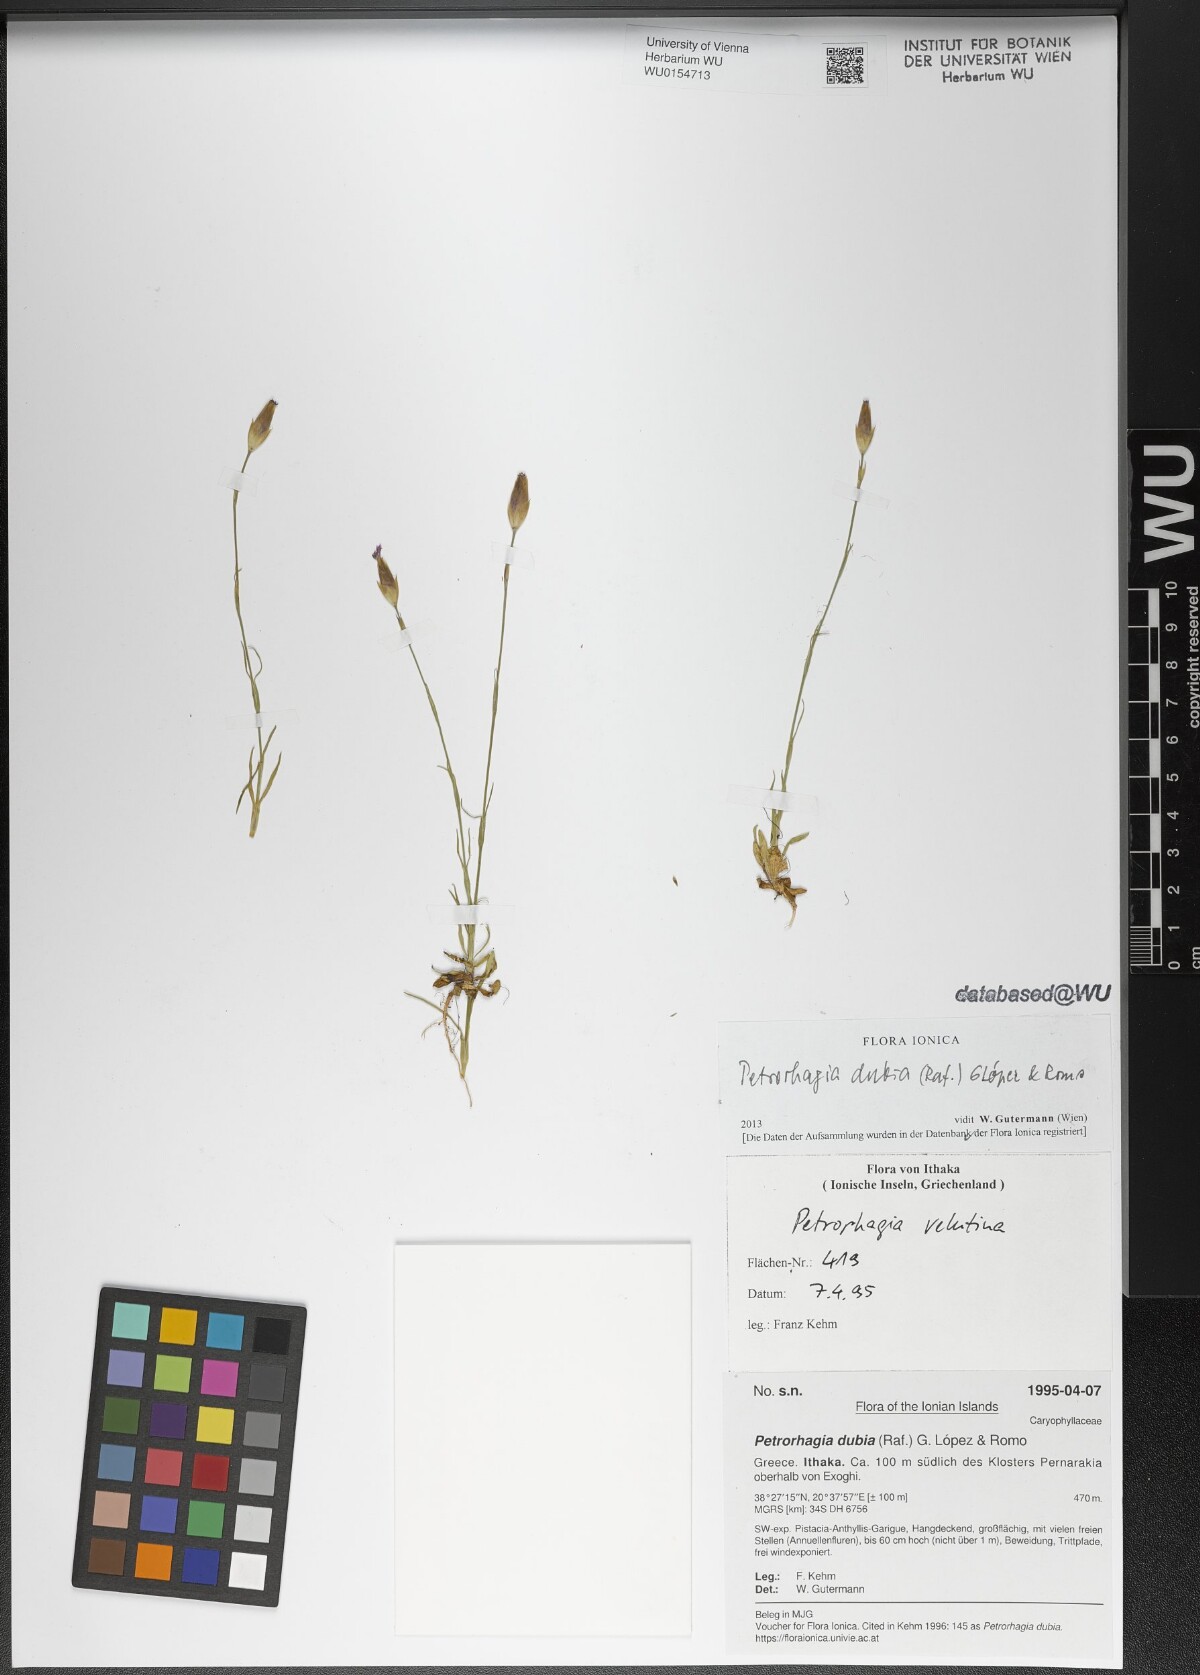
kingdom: Plantae
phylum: Tracheophyta
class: Magnoliopsida
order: Caryophyllales
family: Caryophyllaceae
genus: Petrorhagia
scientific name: Petrorhagia dubia
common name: Hairypink
